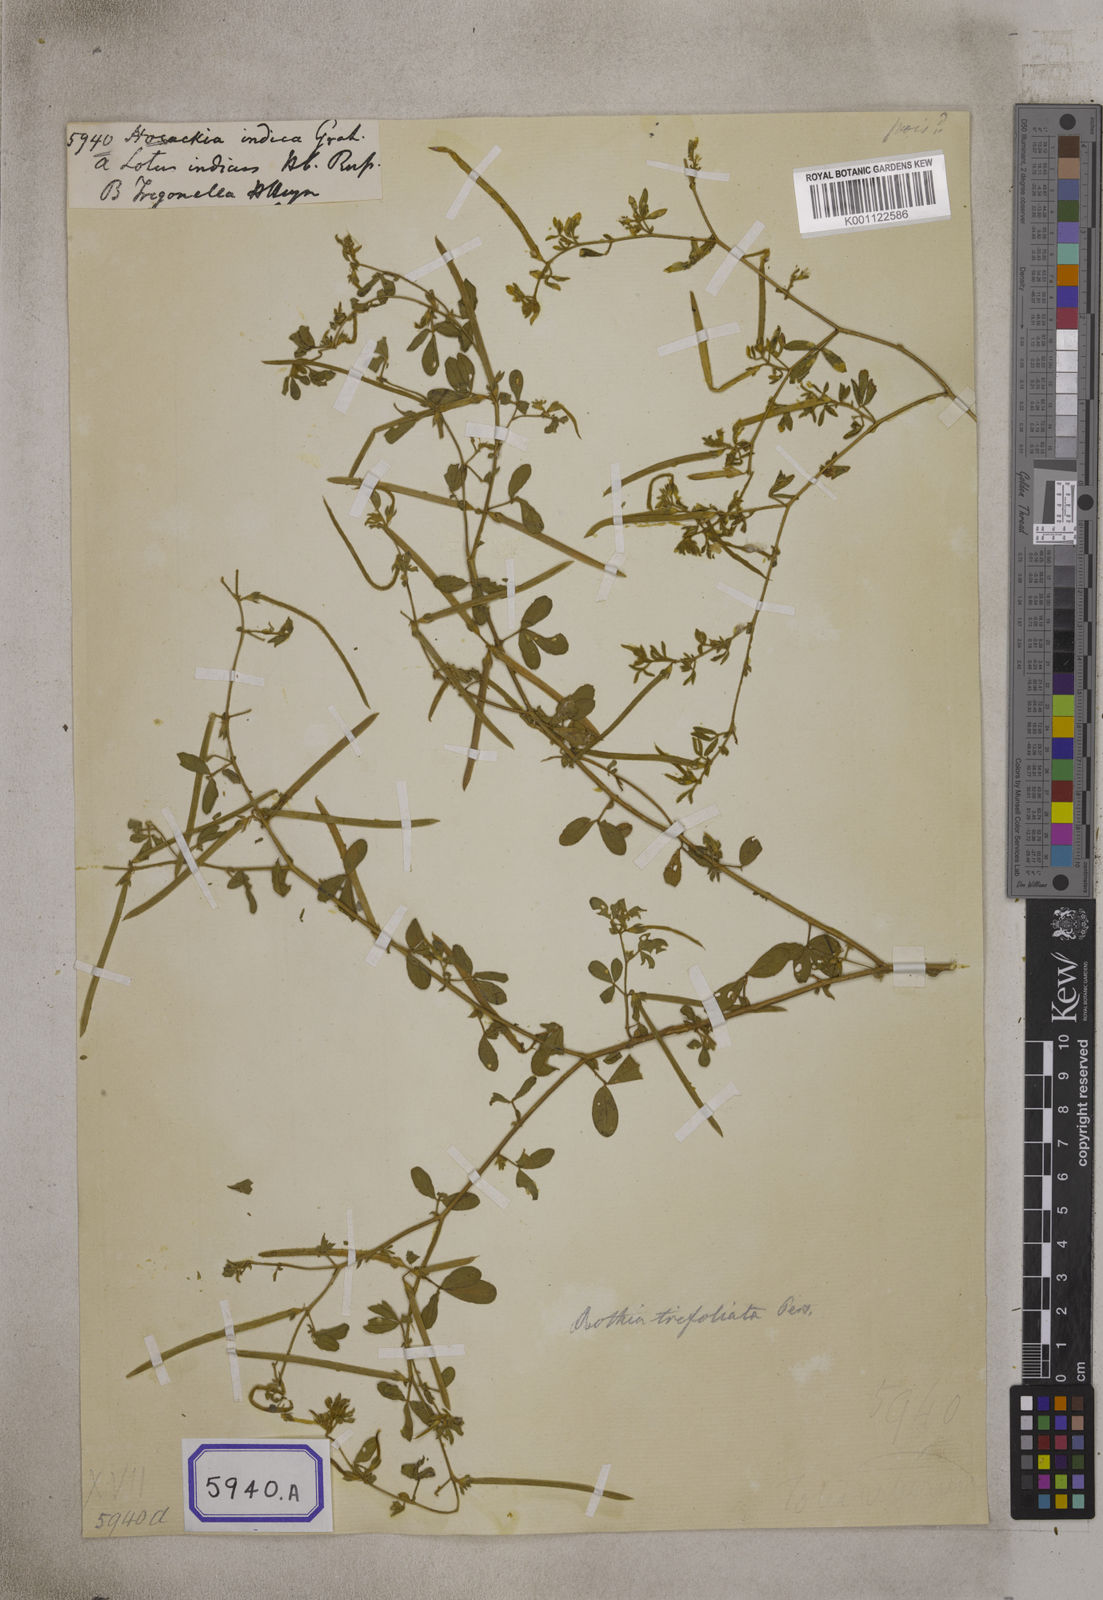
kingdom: Plantae
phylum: Tracheophyta
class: Magnoliopsida
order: Fabales
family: Fabaceae
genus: Rothia
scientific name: Rothia indica
